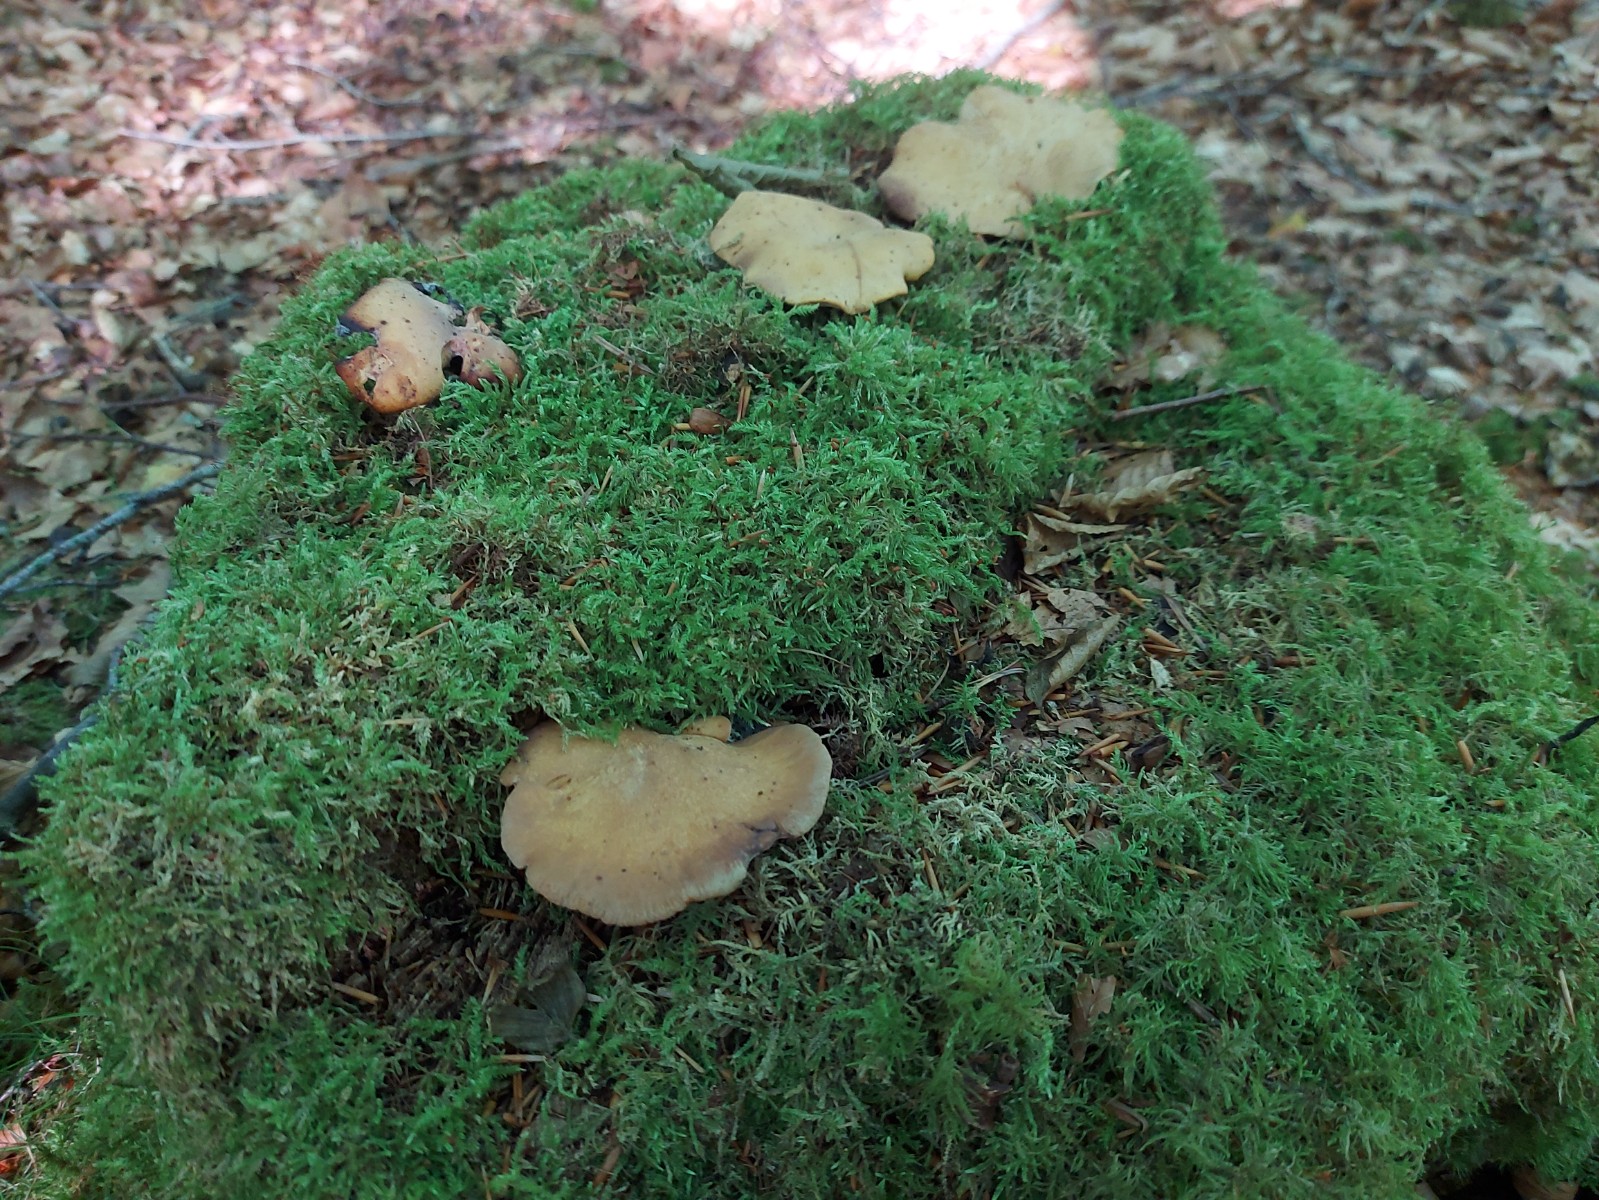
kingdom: Fungi
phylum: Basidiomycota
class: Agaricomycetes
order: Polyporales
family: Polyporaceae
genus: Cerioporus
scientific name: Cerioporus varius
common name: foranderlig stilkporesvamp
